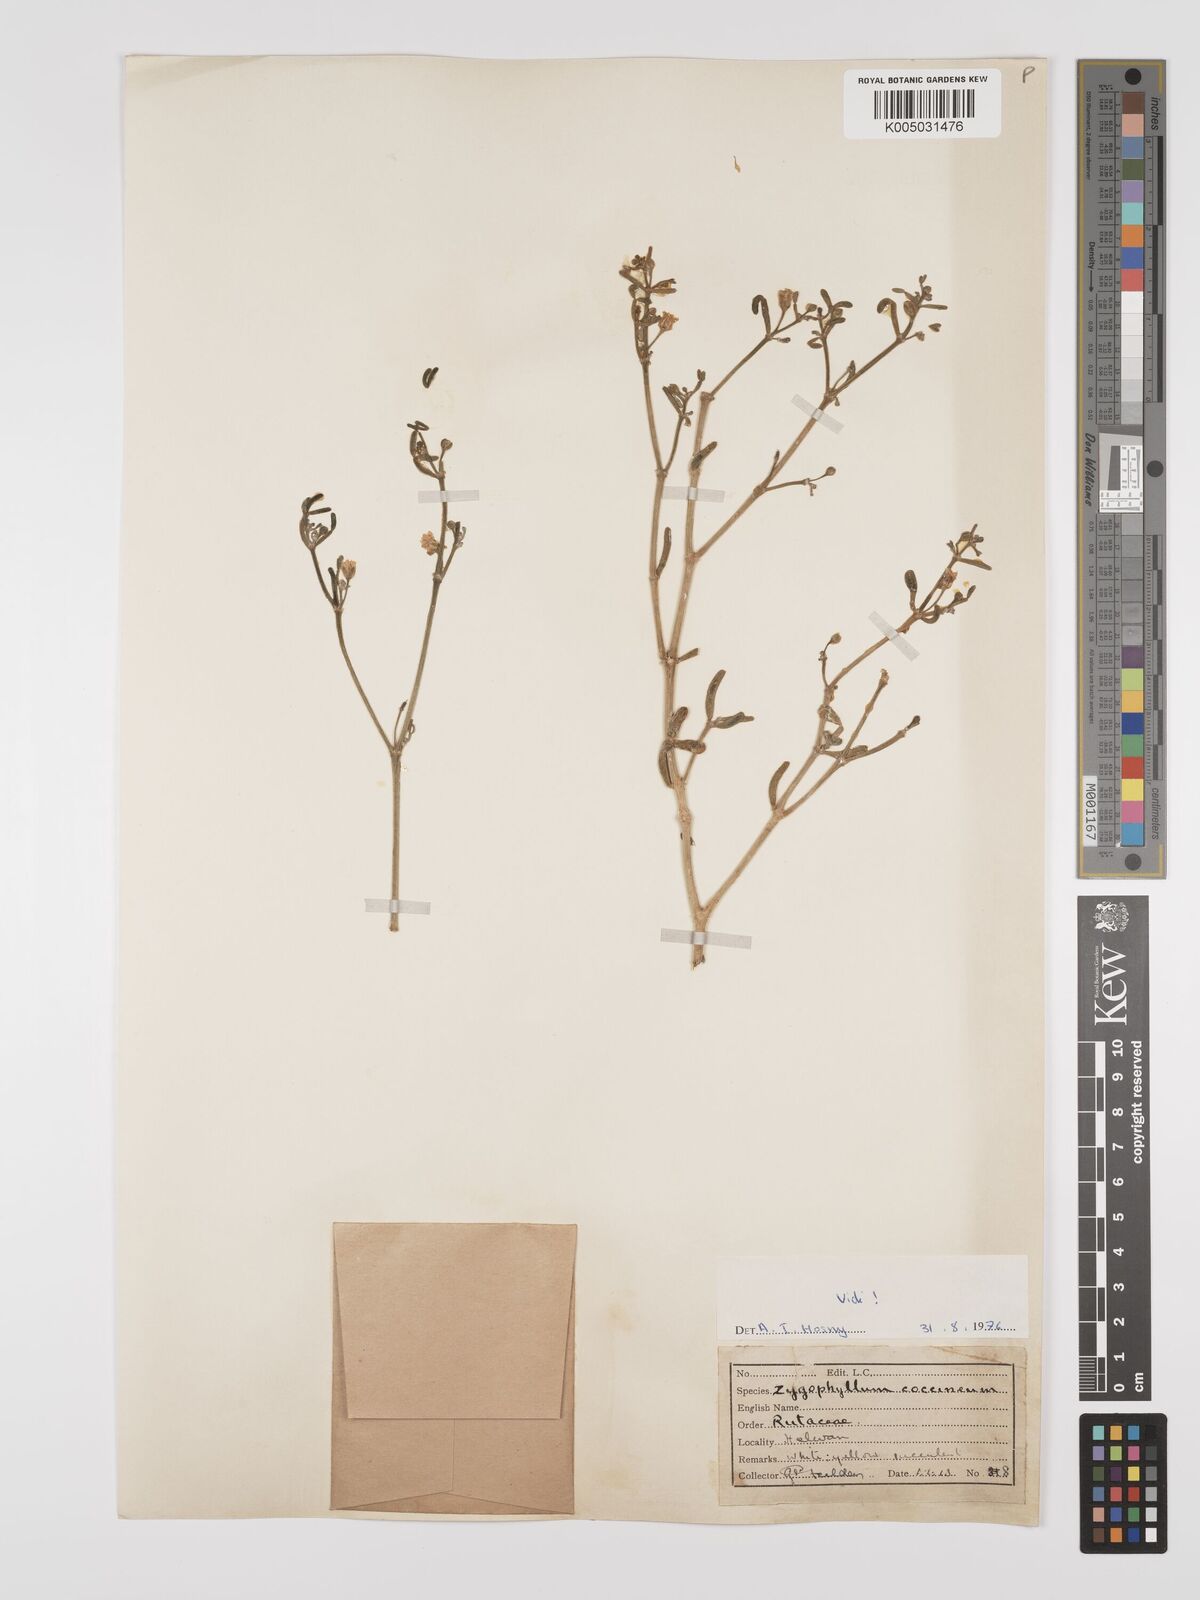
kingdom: Plantae
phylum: Tracheophyta
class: Magnoliopsida
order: Zygophyllales
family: Zygophyllaceae
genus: Tetraena
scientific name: Tetraena coccinea
